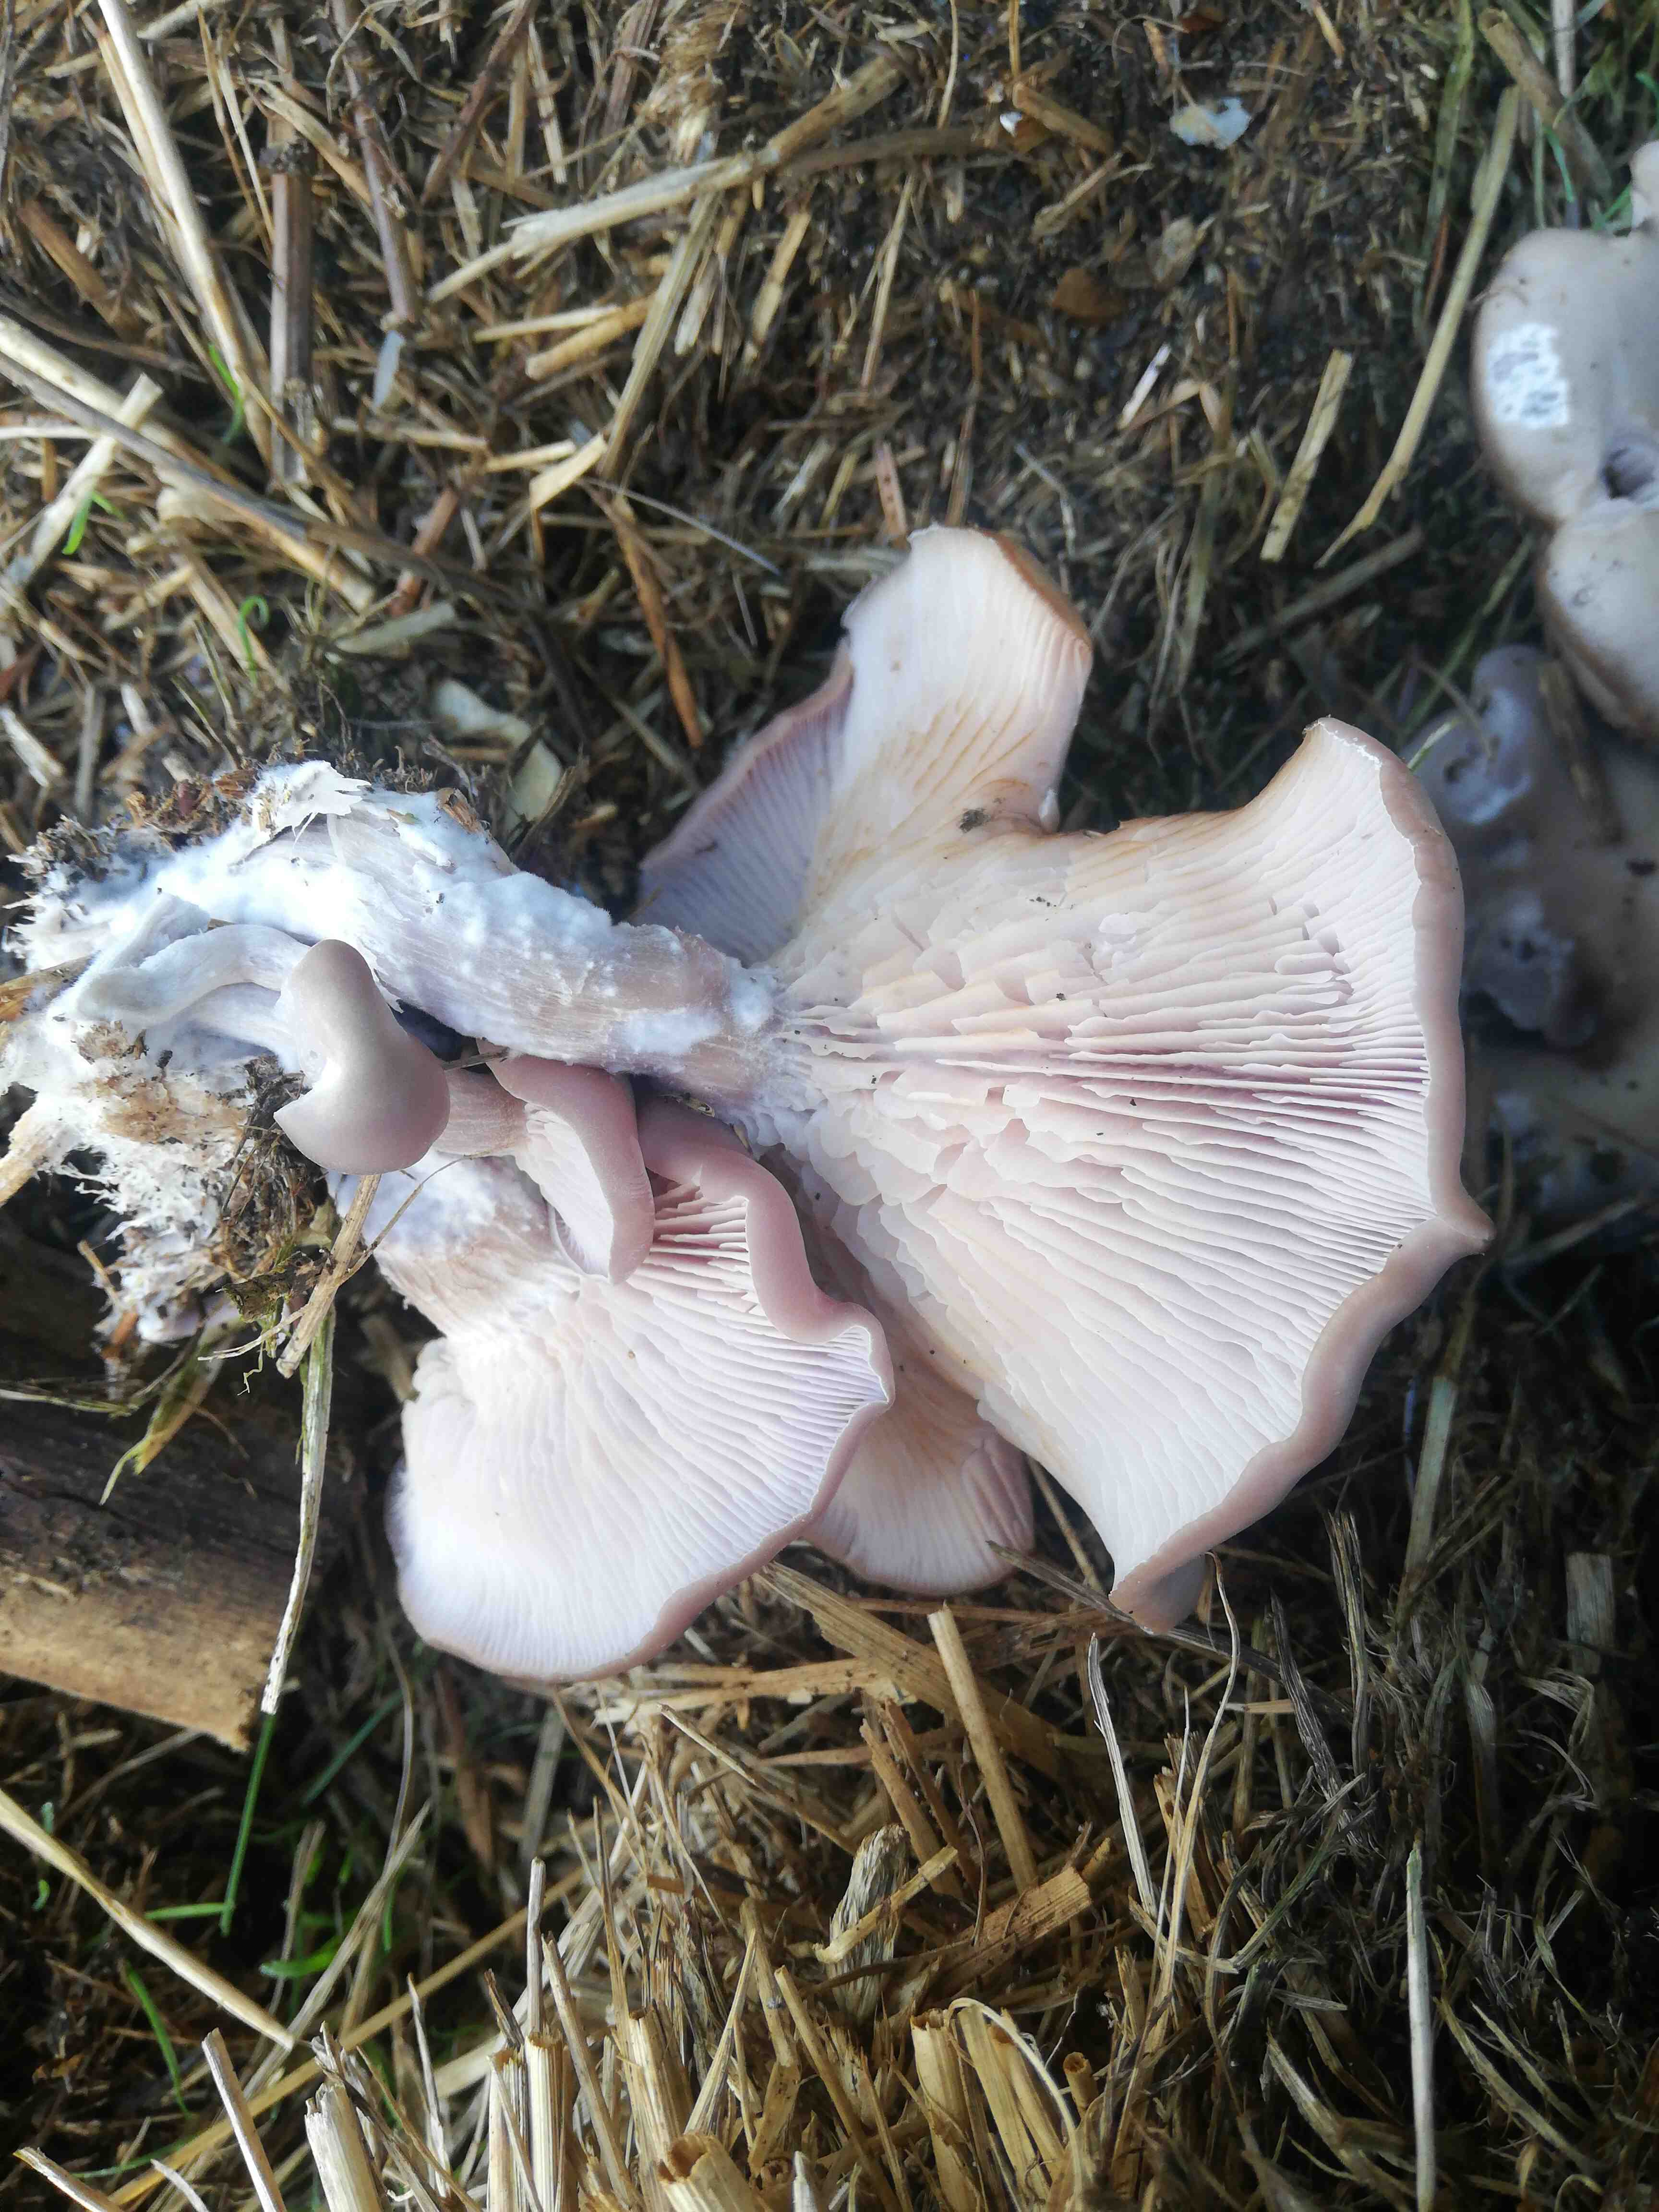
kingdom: Fungi
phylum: Basidiomycota
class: Agaricomycetes
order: Agaricales
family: Tricholomataceae
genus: Lepista
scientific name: Lepista
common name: hekseringshat
